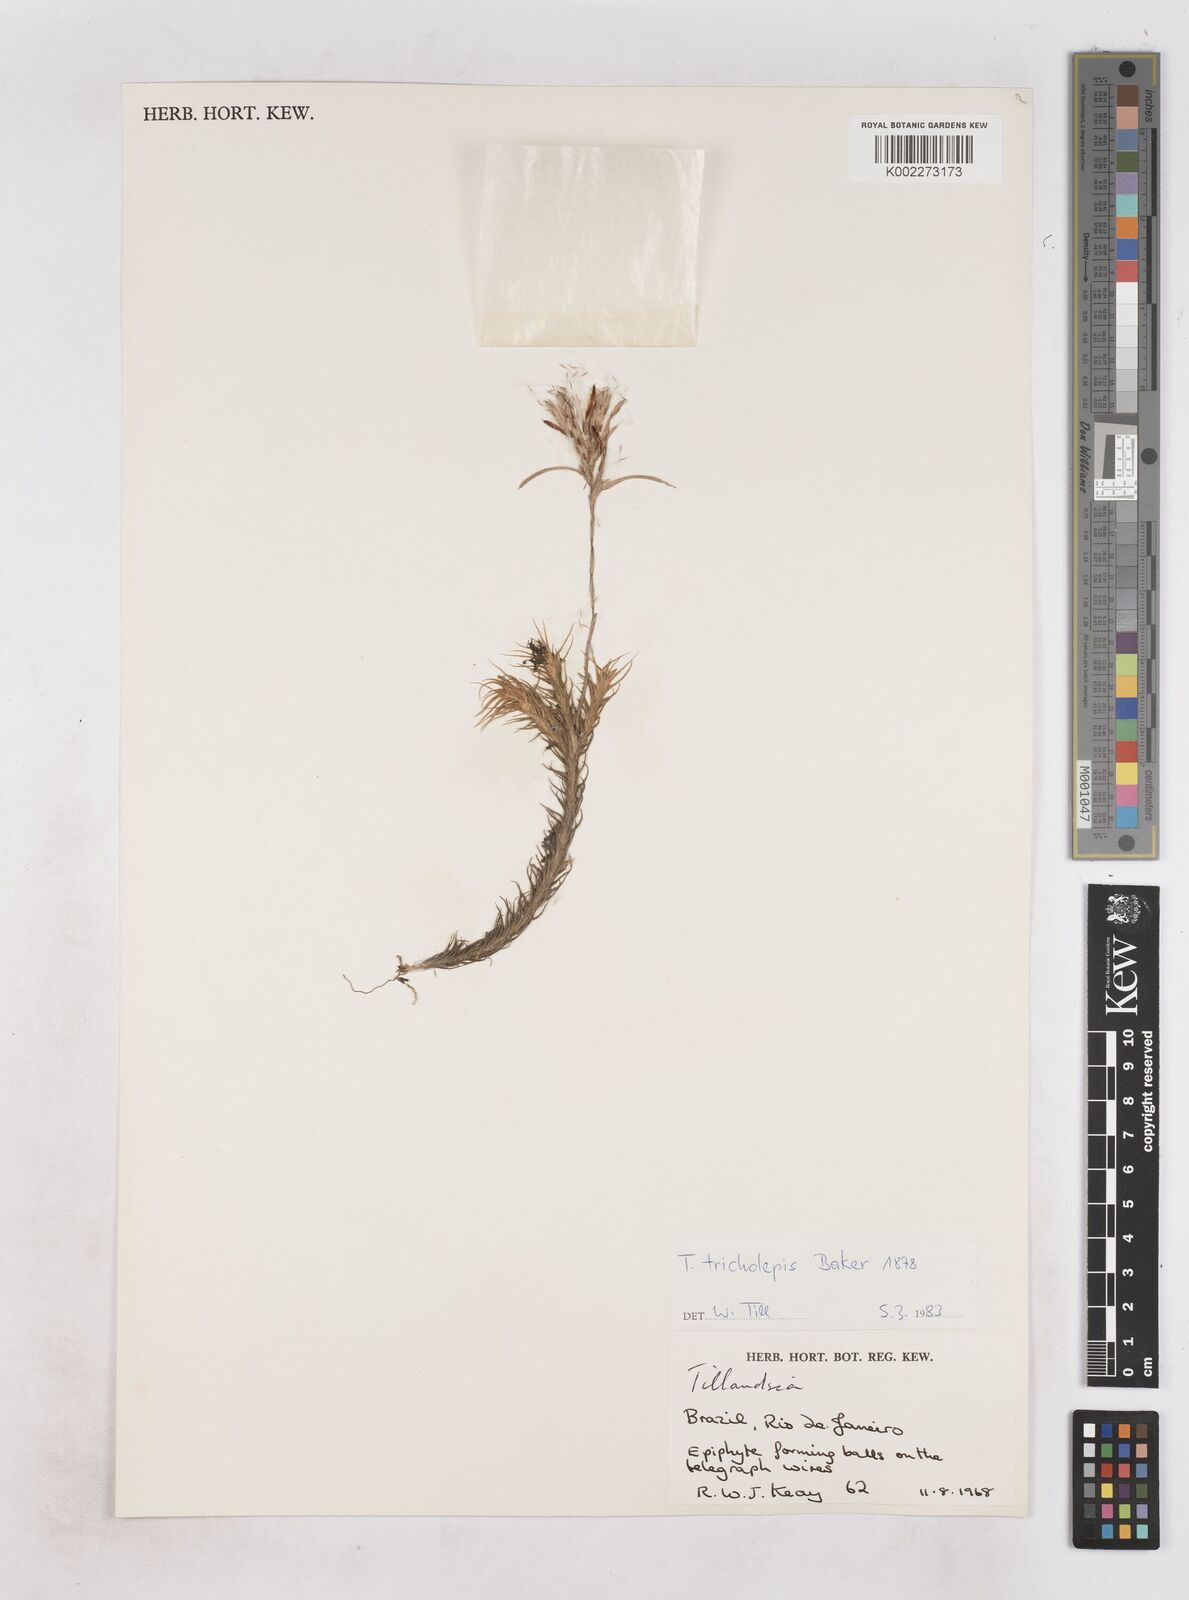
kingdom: Plantae
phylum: Tracheophyta
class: Liliopsida
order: Poales
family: Bromeliaceae
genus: Tillandsia
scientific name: Tillandsia tricholepis
